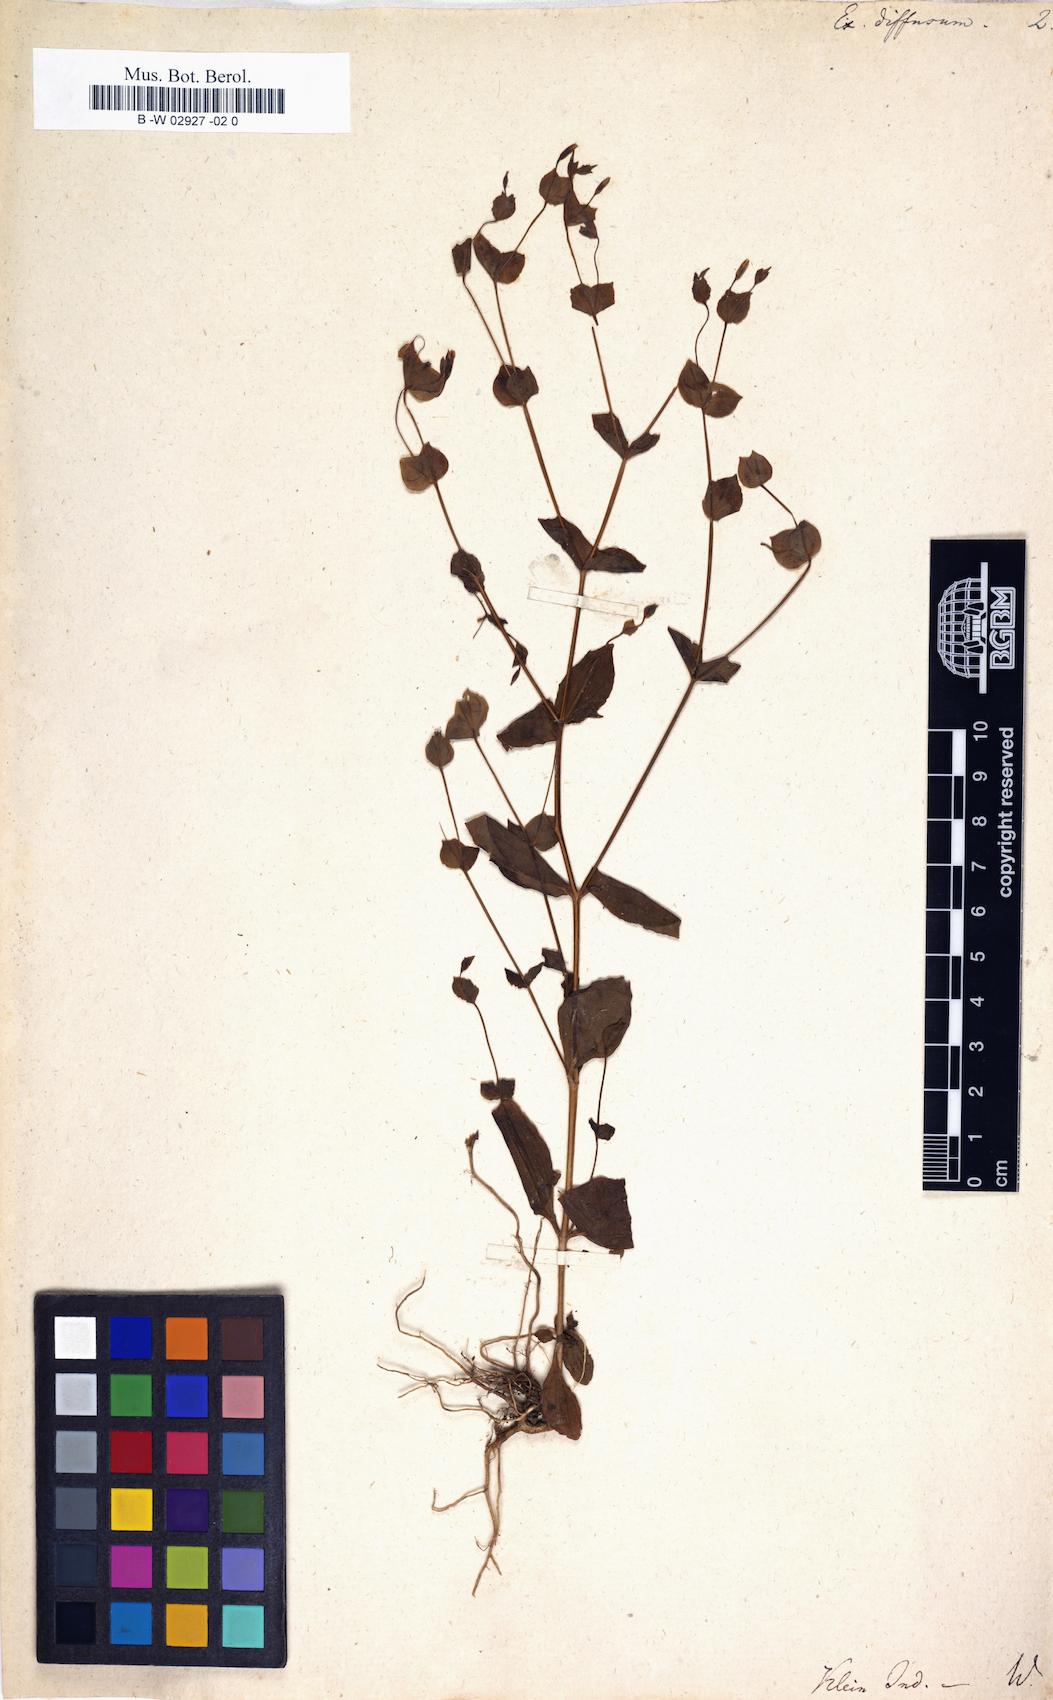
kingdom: Plantae
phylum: Tracheophyta
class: Magnoliopsida
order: Gentianales
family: Gentianaceae
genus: Canscora
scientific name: Canscora diffusa
